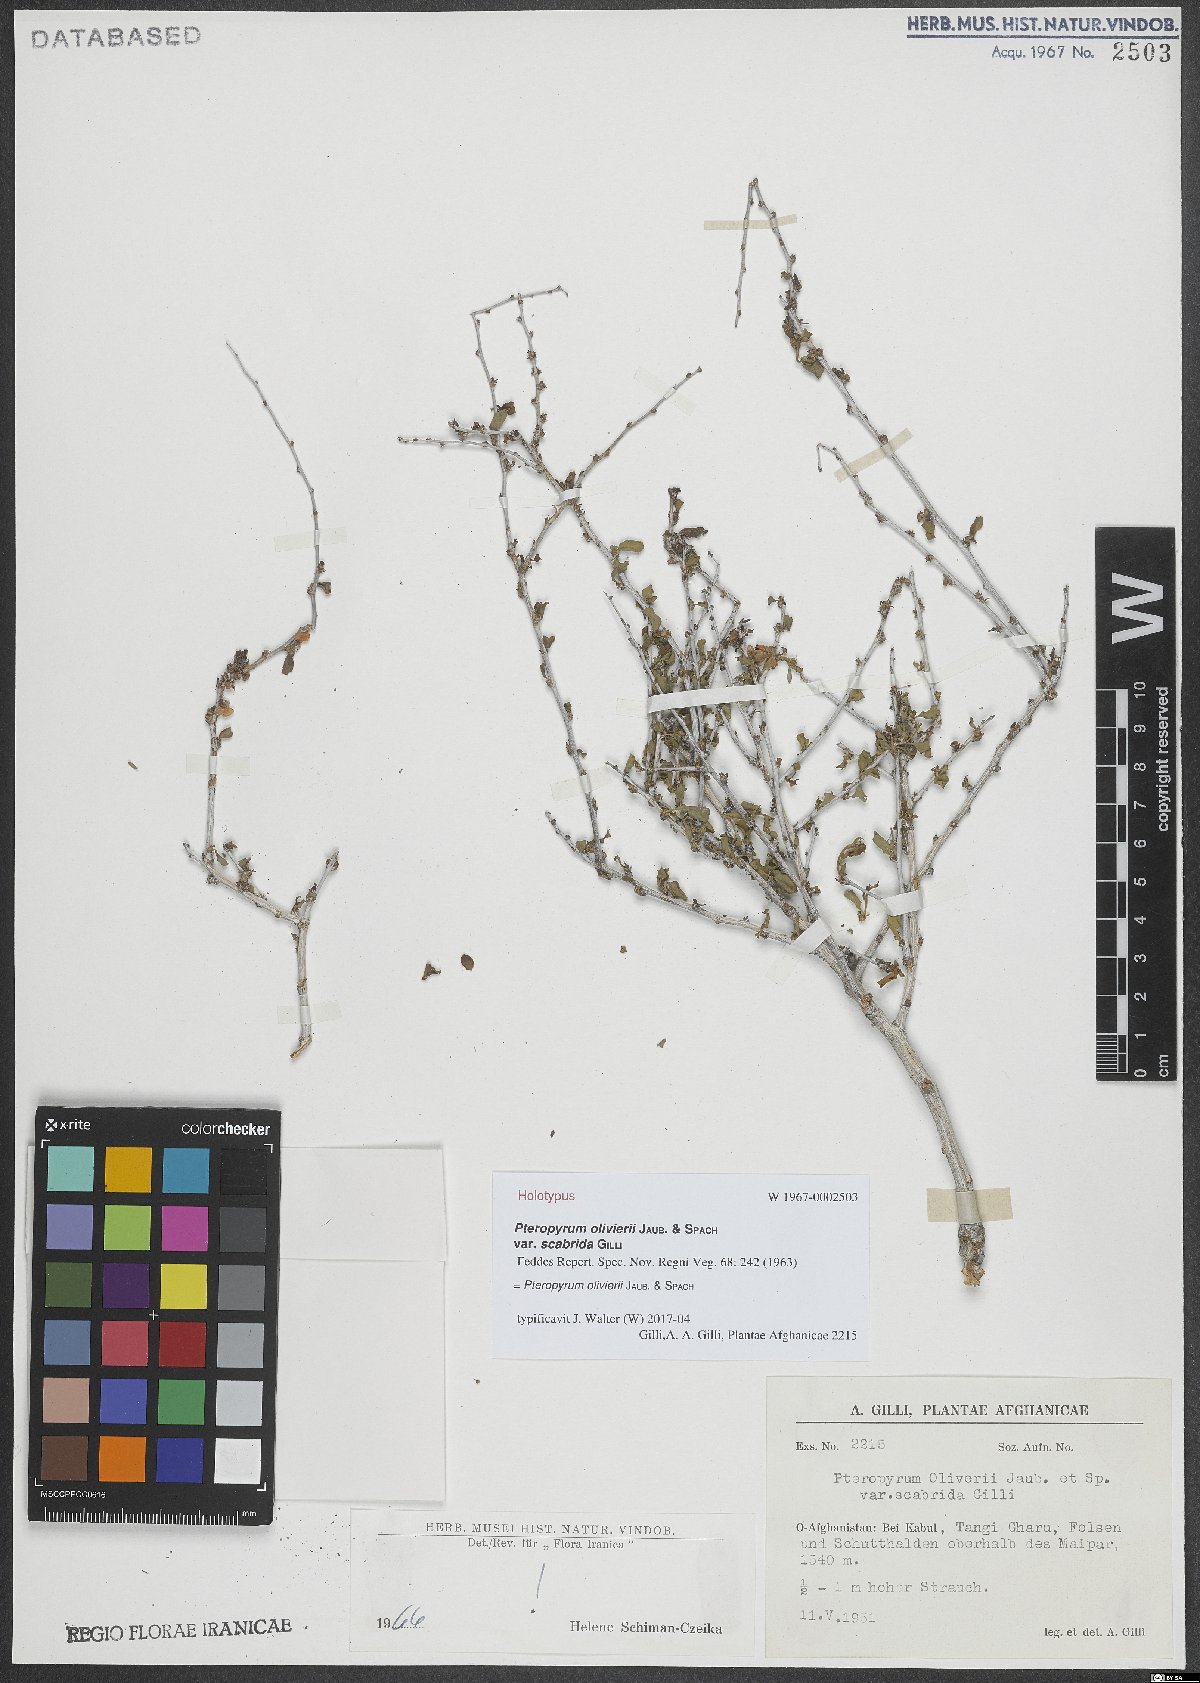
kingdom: Plantae
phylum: Tracheophyta
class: Magnoliopsida
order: Caryophyllales
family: Polygonaceae
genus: Pteropyrum
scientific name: Pteropyrum aucheri
